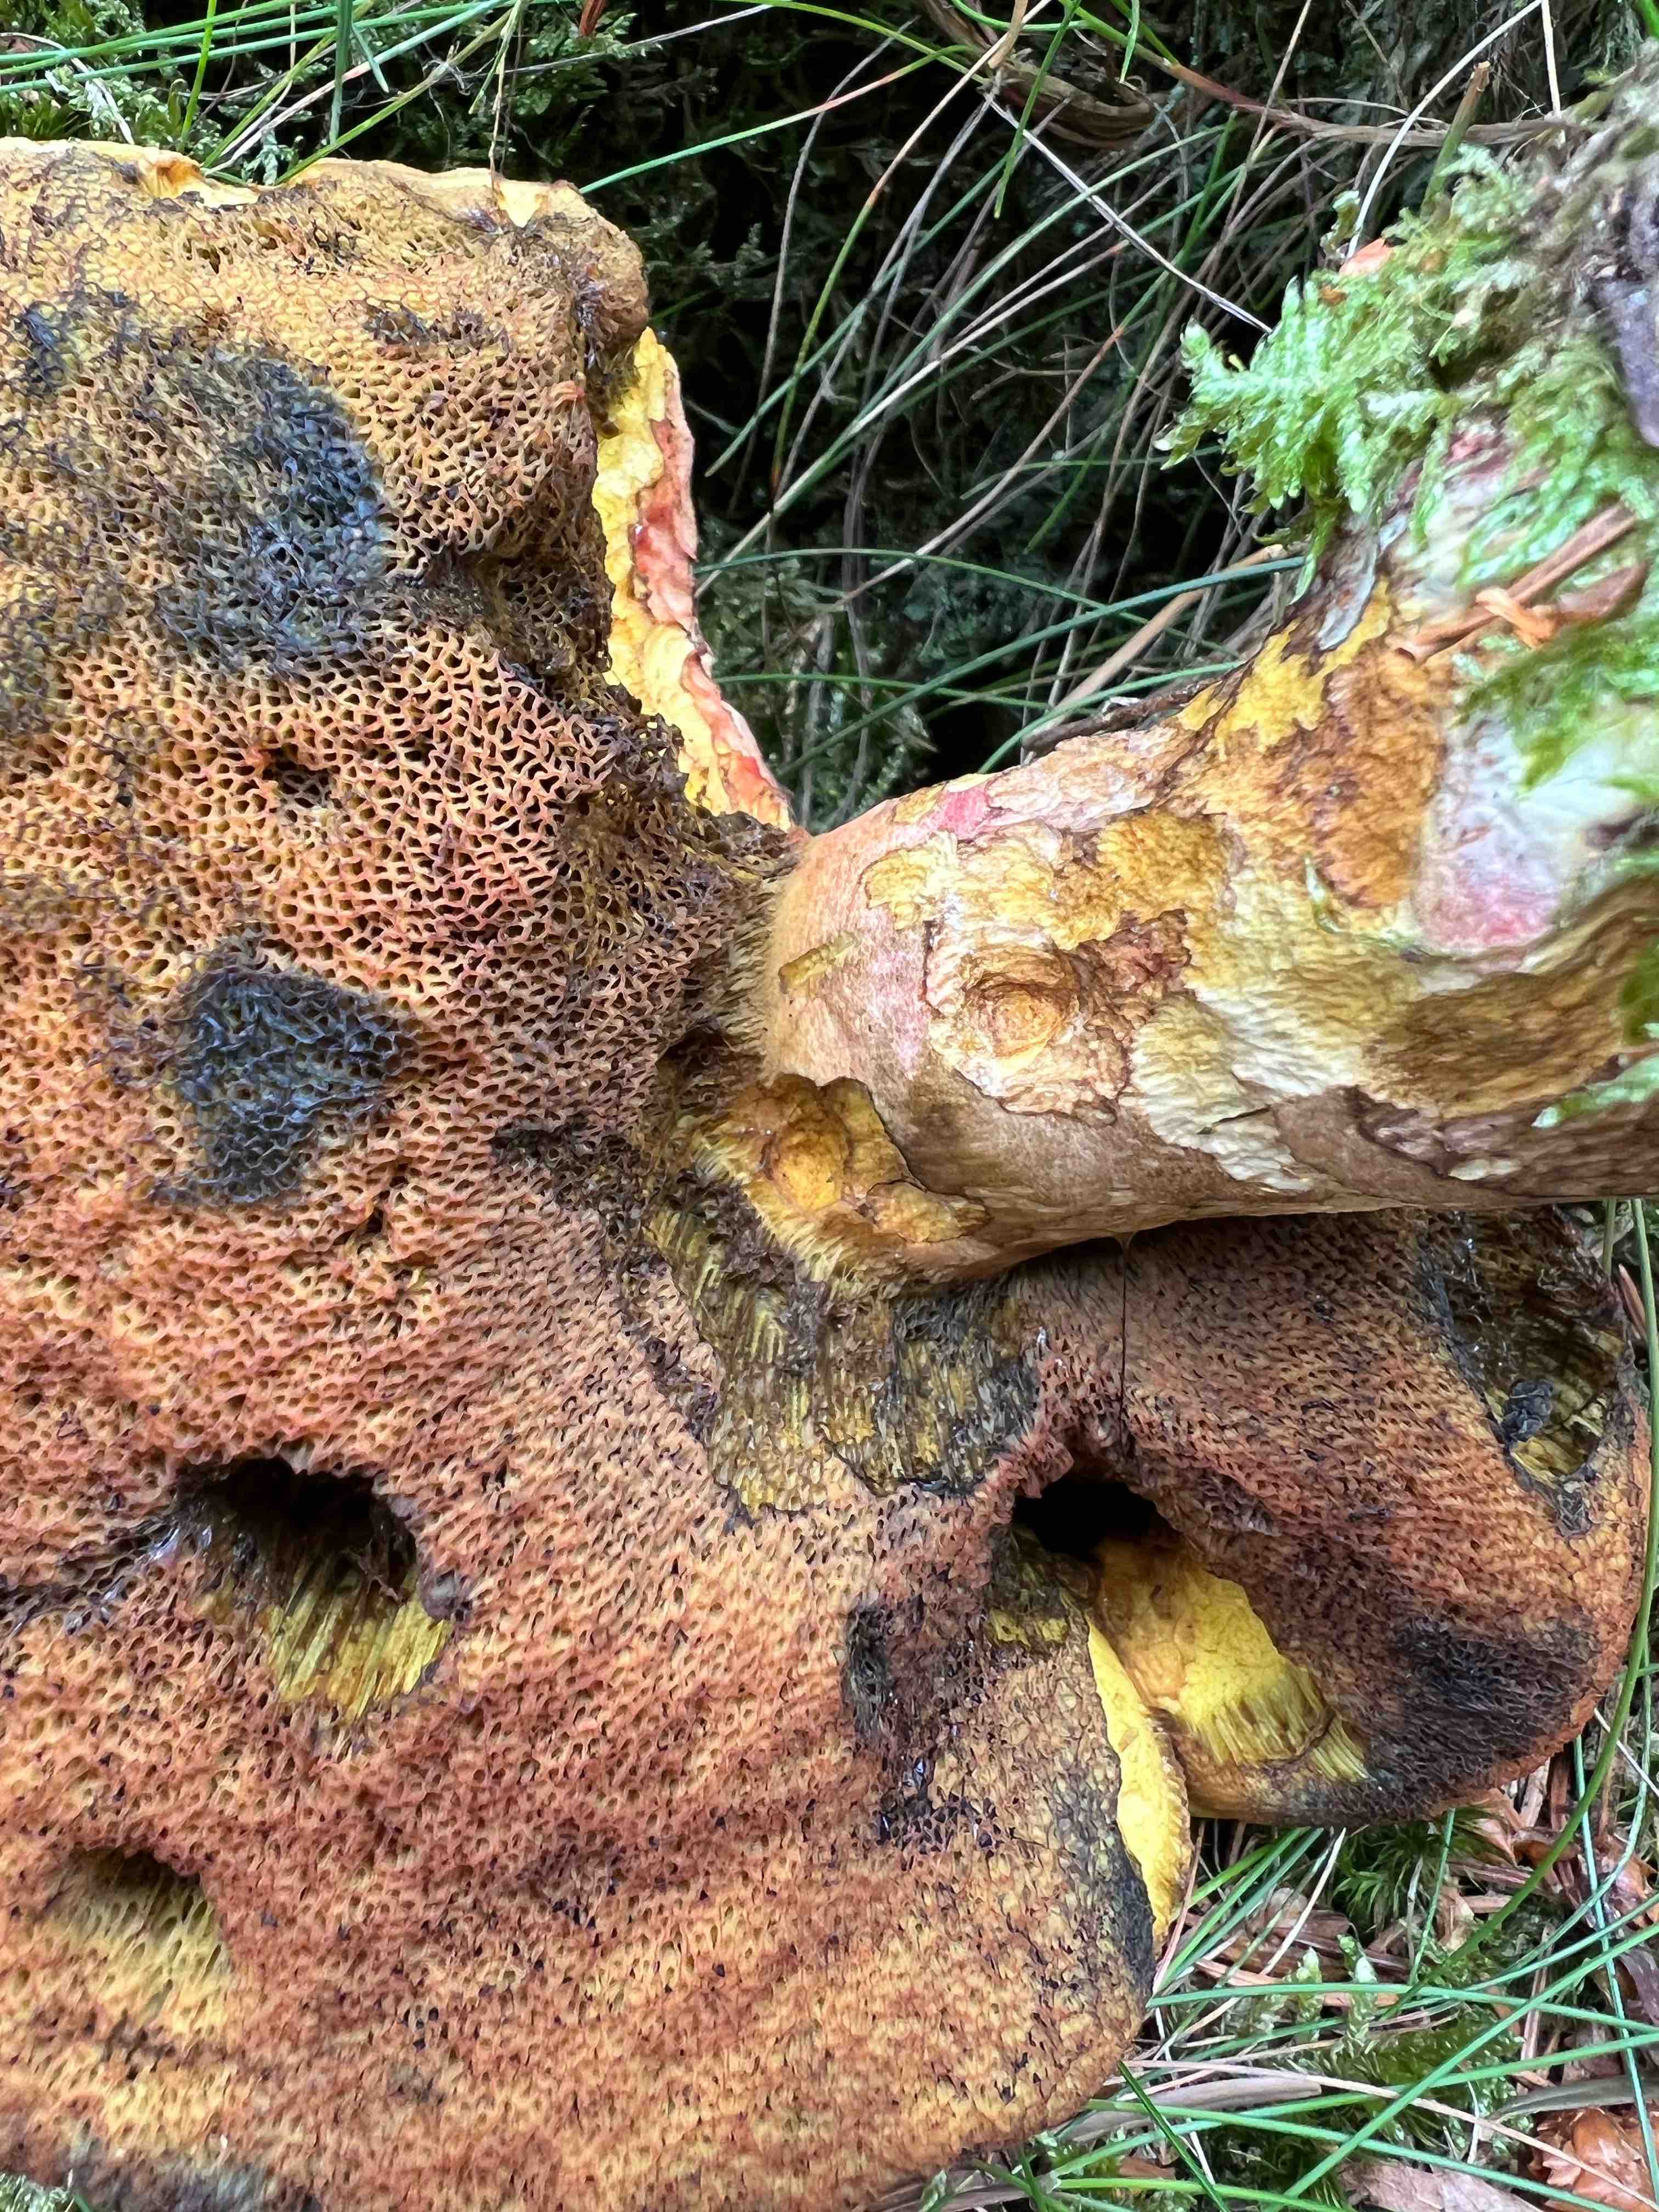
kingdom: Fungi
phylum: Basidiomycota
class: Agaricomycetes
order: Boletales
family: Boletaceae
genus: Neoboletus
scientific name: Neoboletus erythropus
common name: punktstokket indigorørhat
